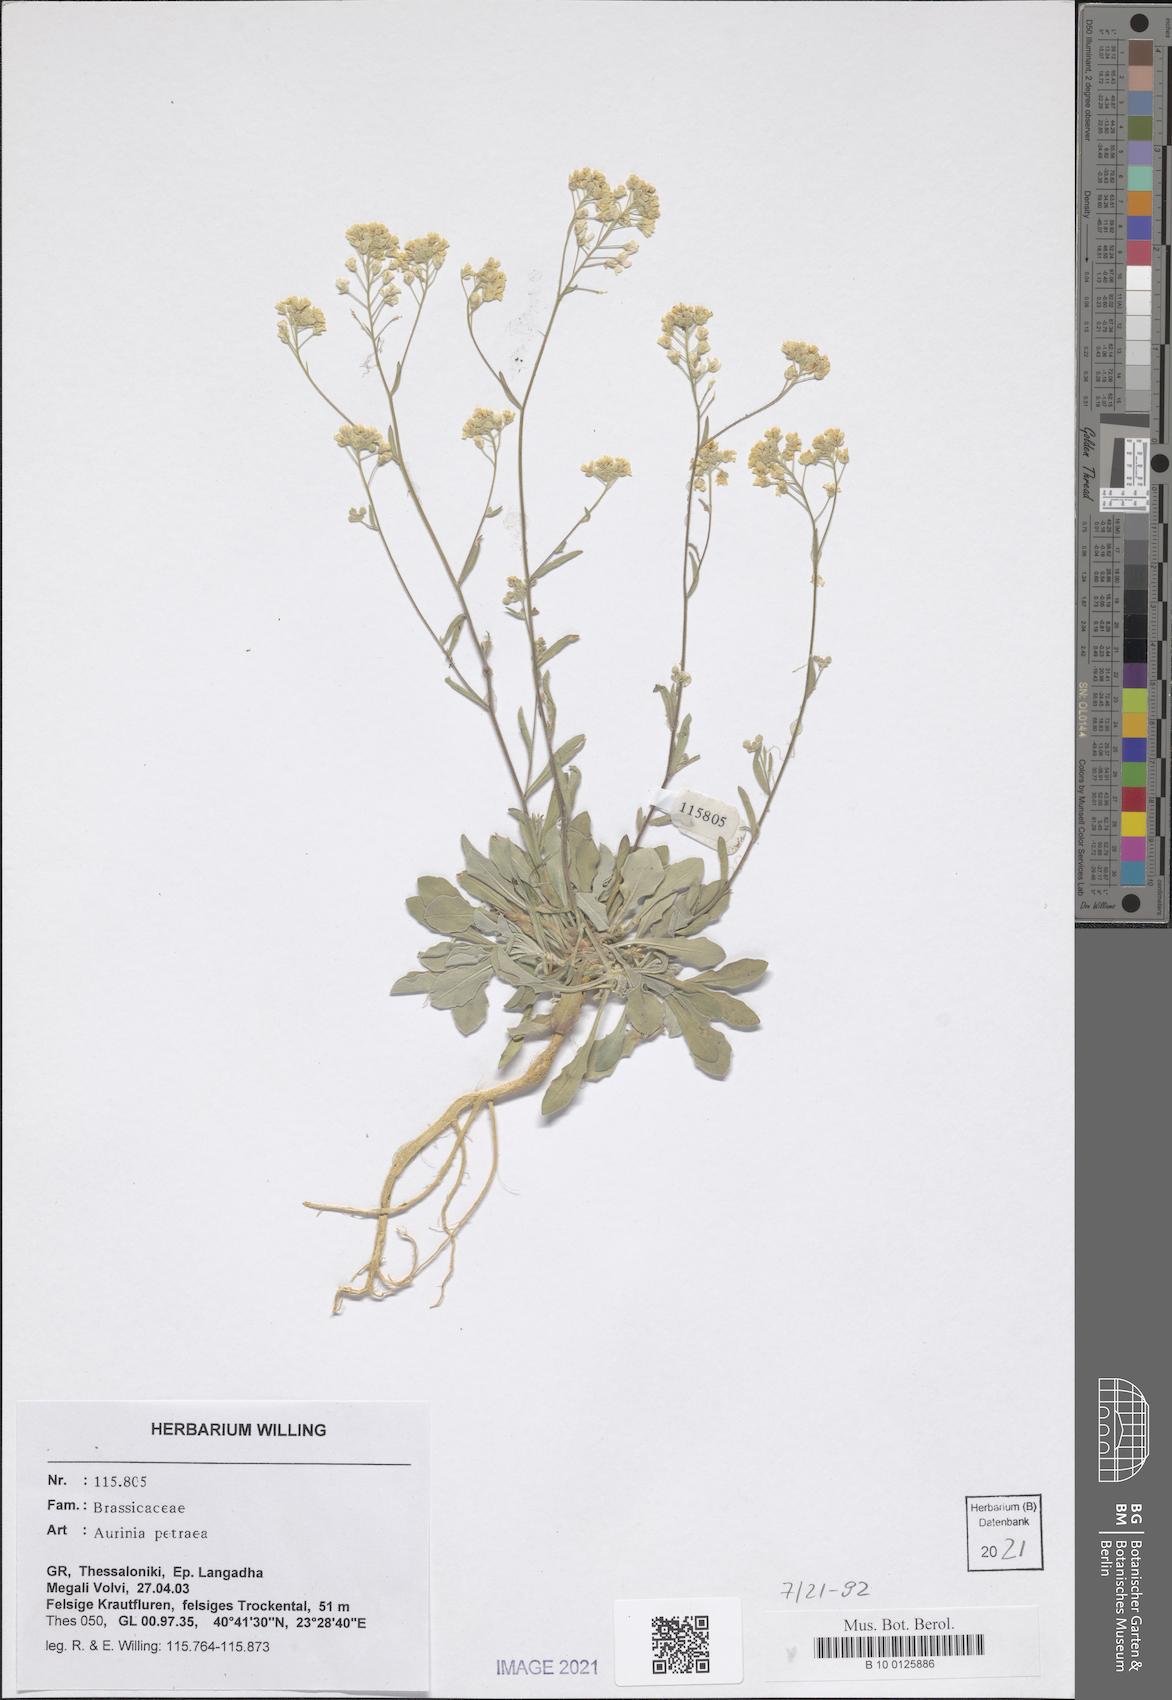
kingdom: Plantae
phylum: Tracheophyta
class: Magnoliopsida
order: Brassicales
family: Brassicaceae
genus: Aurinia
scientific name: Aurinia petraea
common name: Goldentuft
